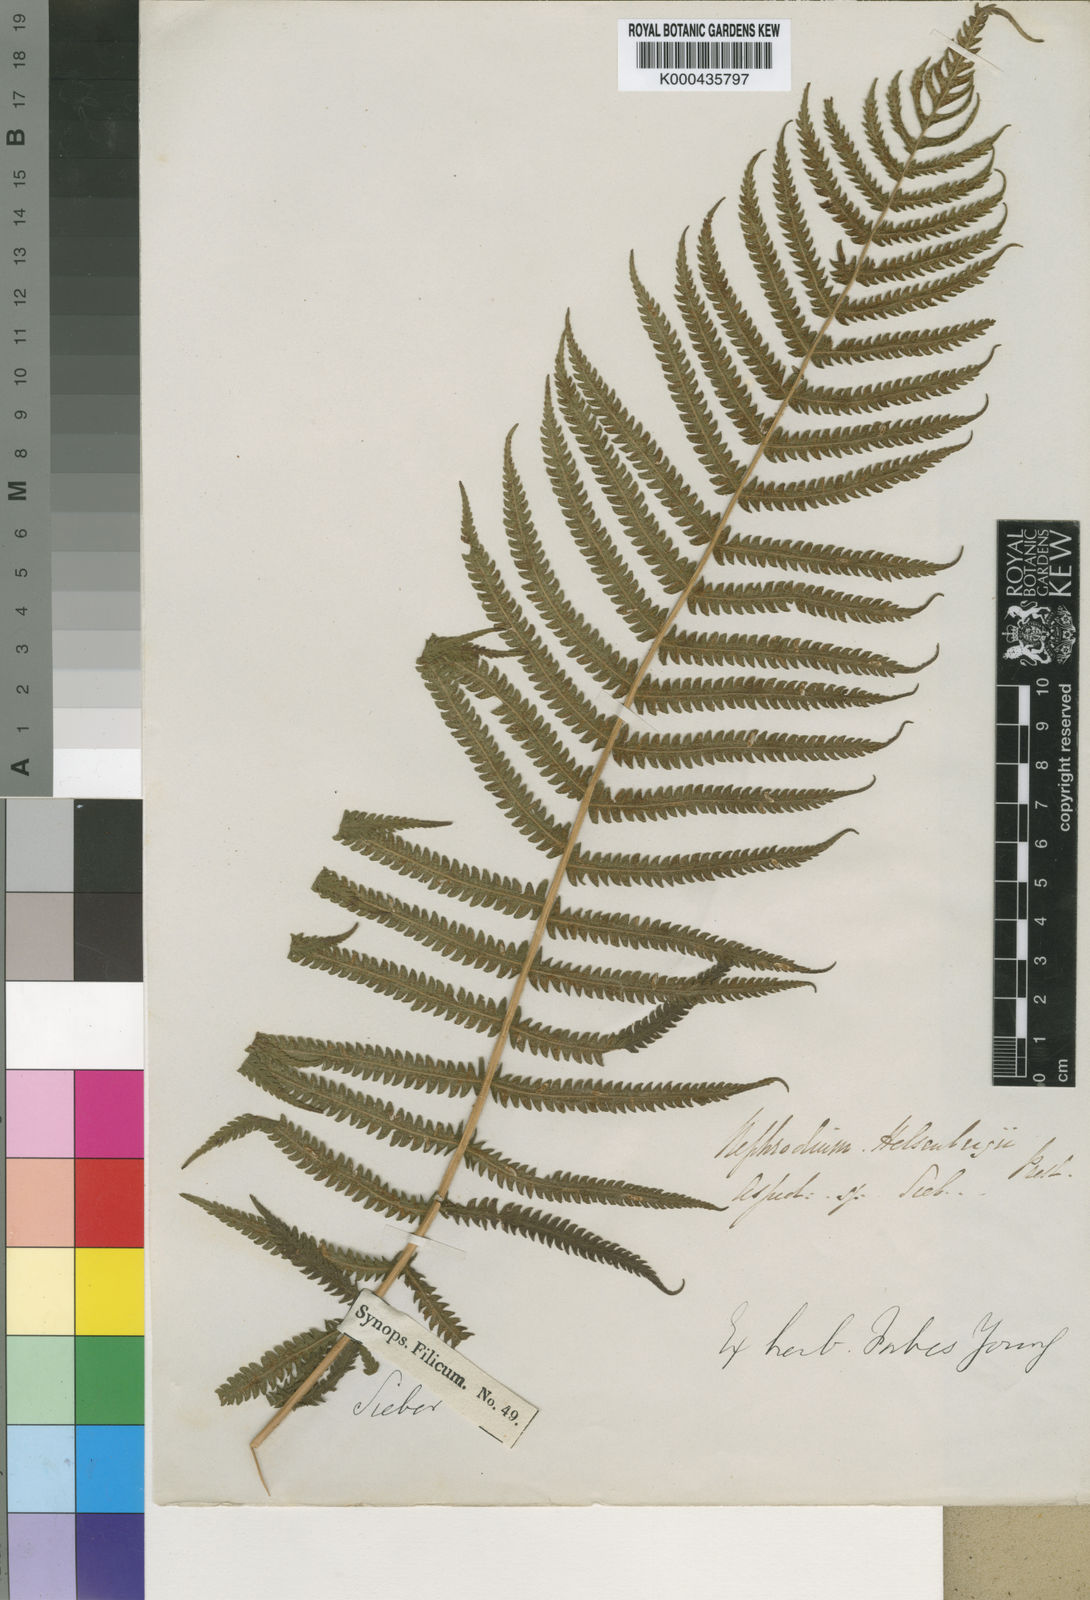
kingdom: Plantae
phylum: Tracheophyta
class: Polypodiopsida
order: Polypodiales
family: Thelypteridaceae
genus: Christella
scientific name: Christella hispidula
